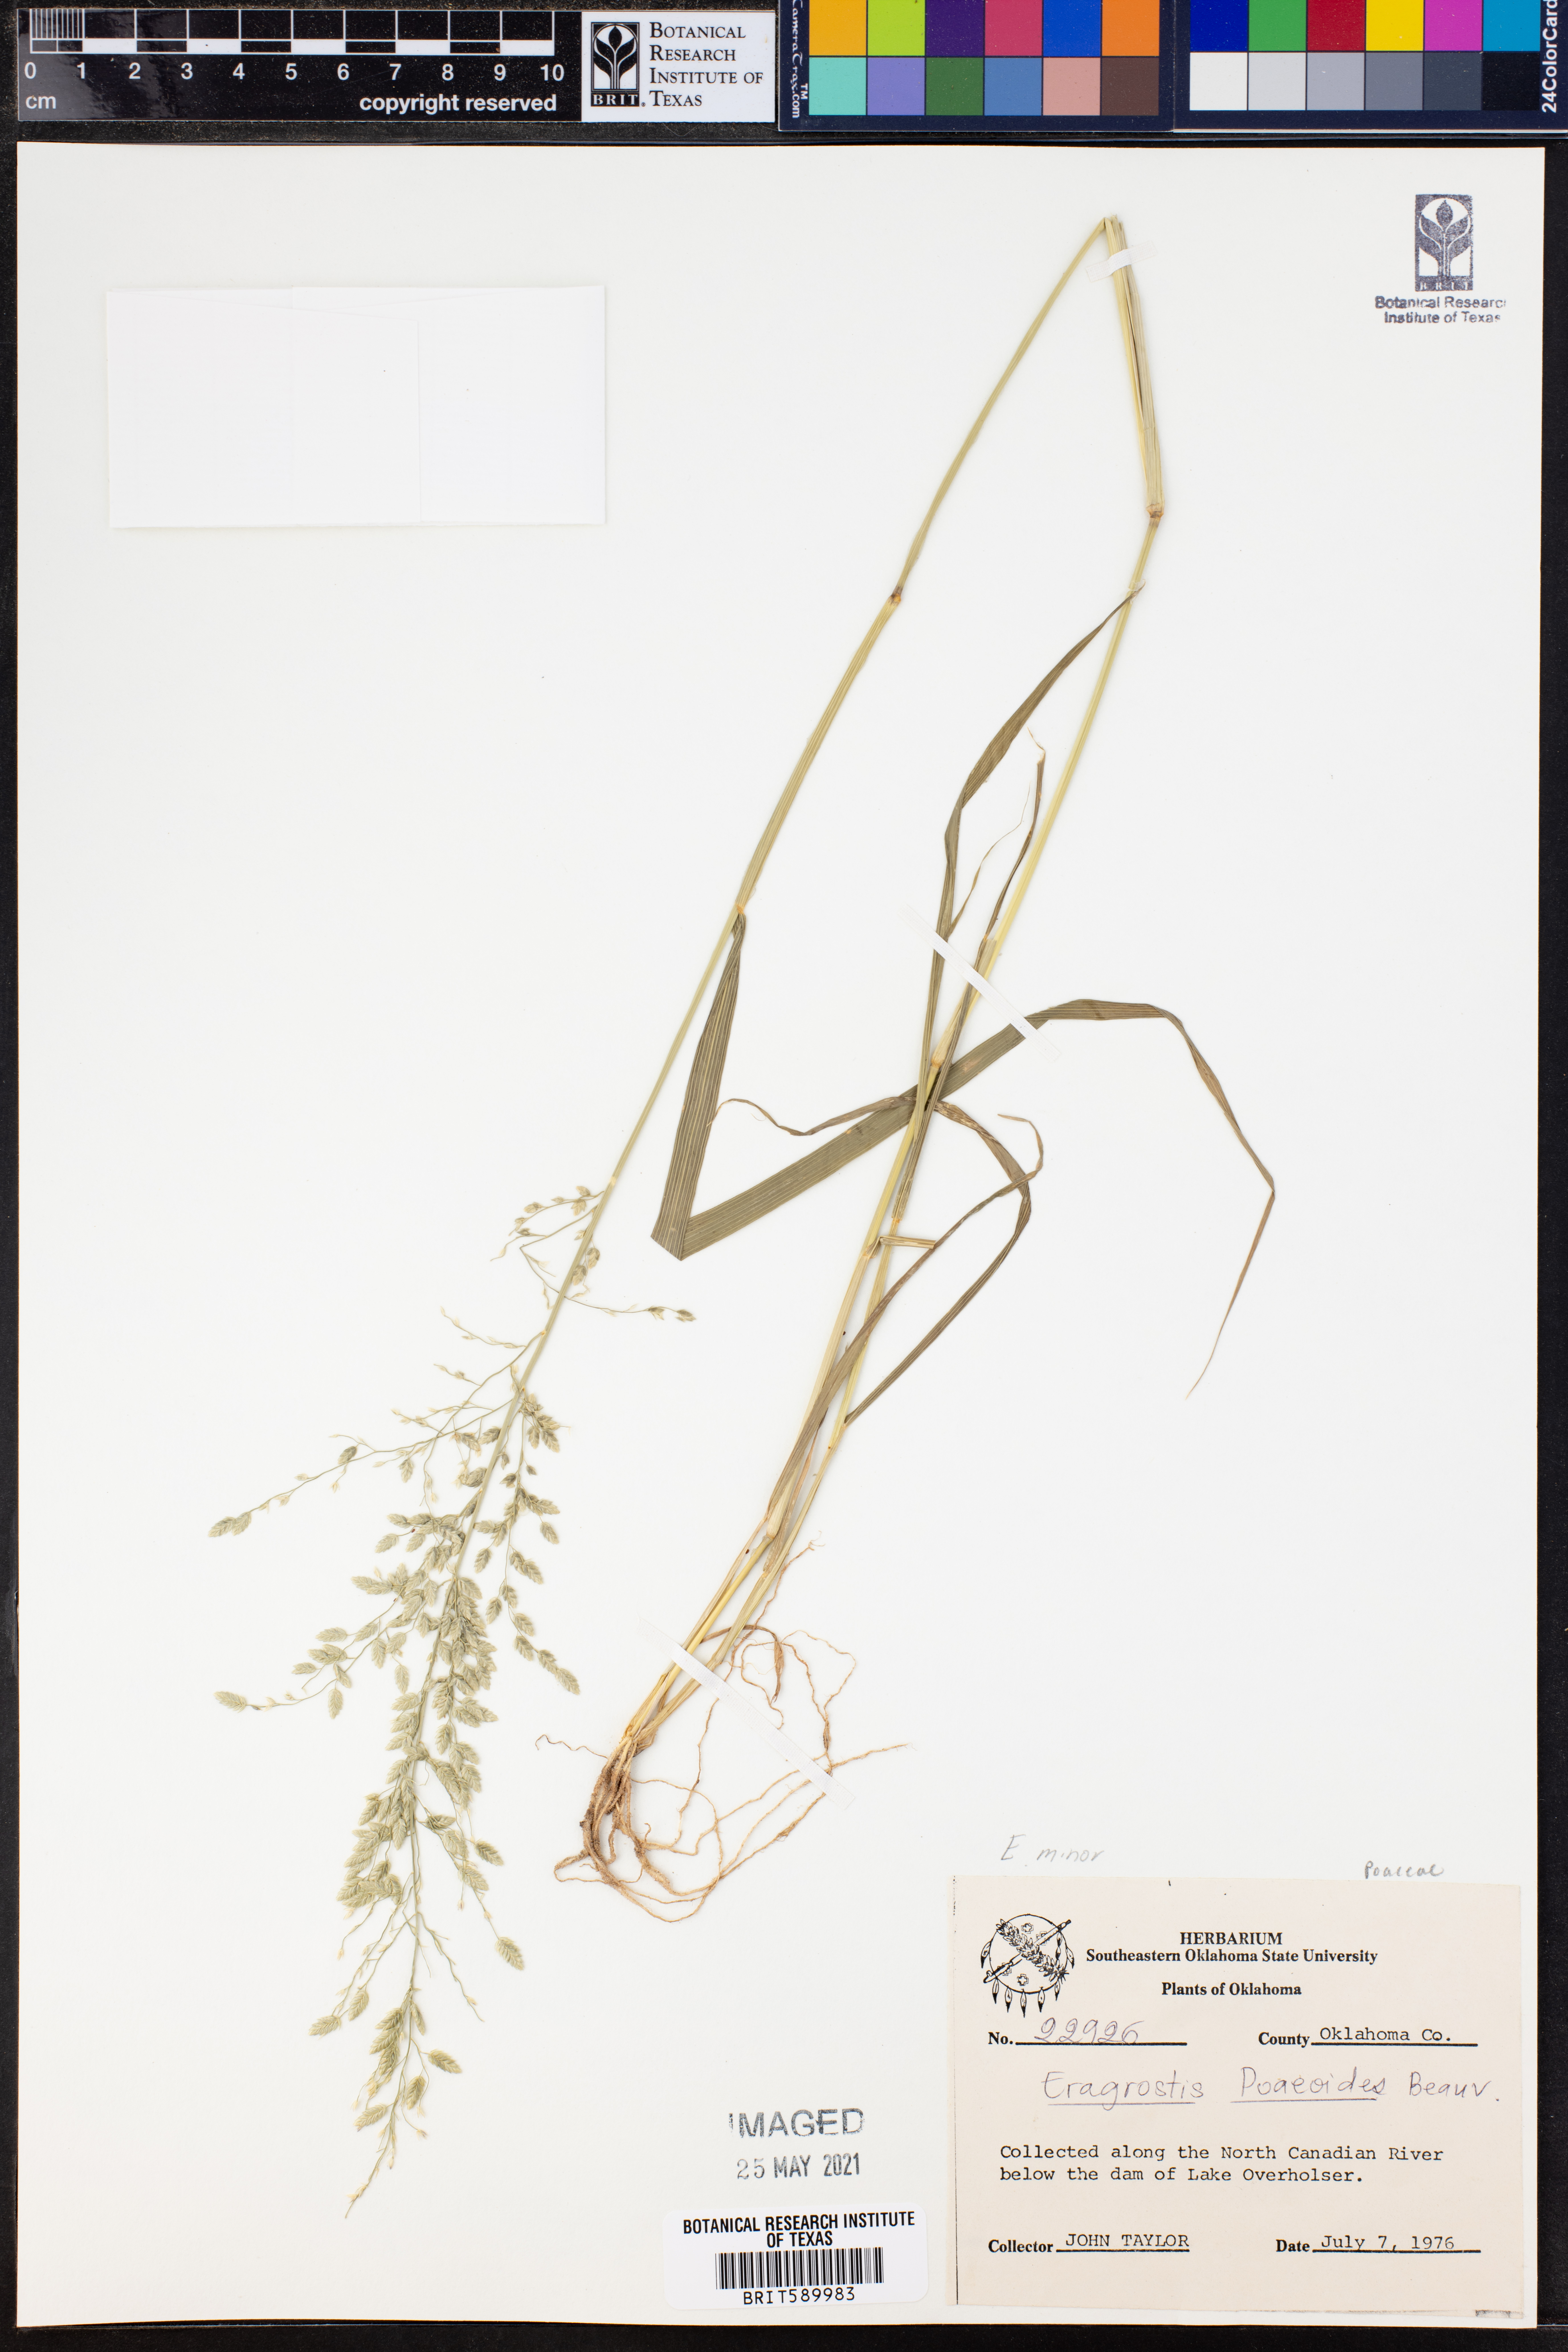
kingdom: Plantae
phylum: Tracheophyta
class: Liliopsida
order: Poales
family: Poaceae
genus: Eragrostis
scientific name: Eragrostis minor
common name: Small love-grass
